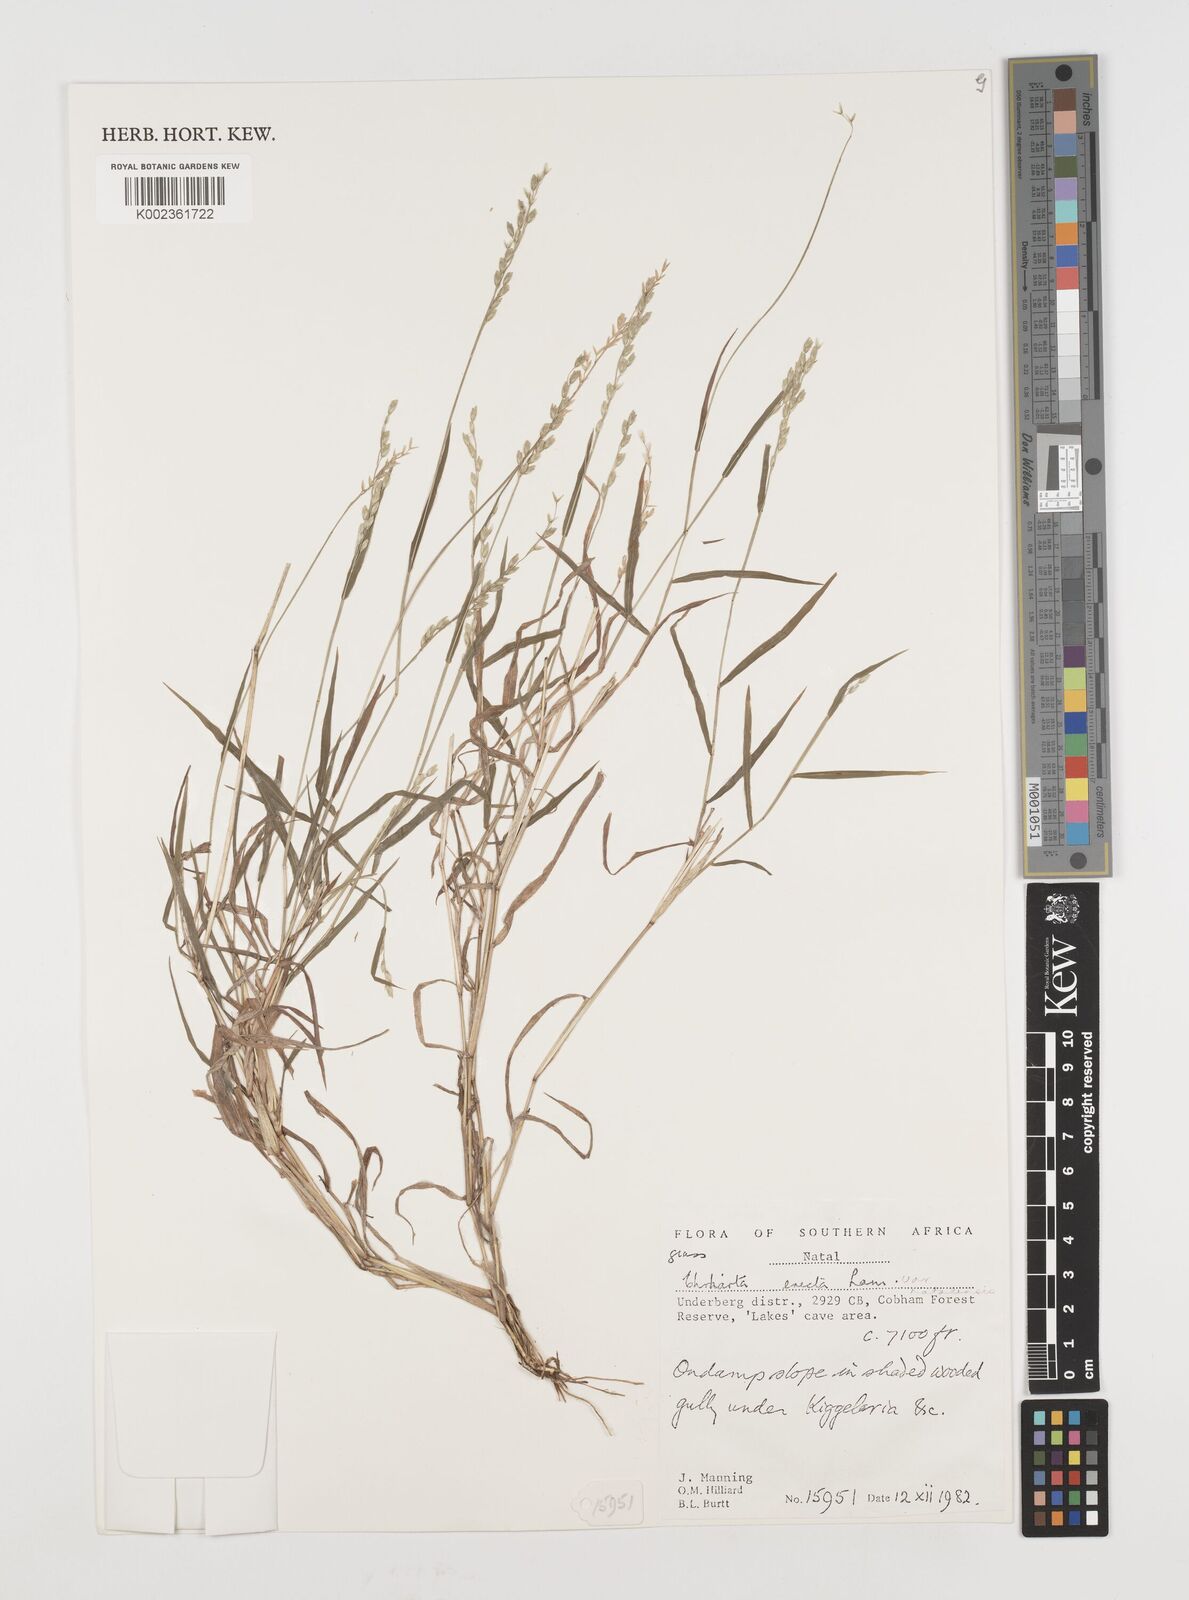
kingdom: Plantae
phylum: Tracheophyta
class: Liliopsida
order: Poales
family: Poaceae
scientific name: Poaceae
